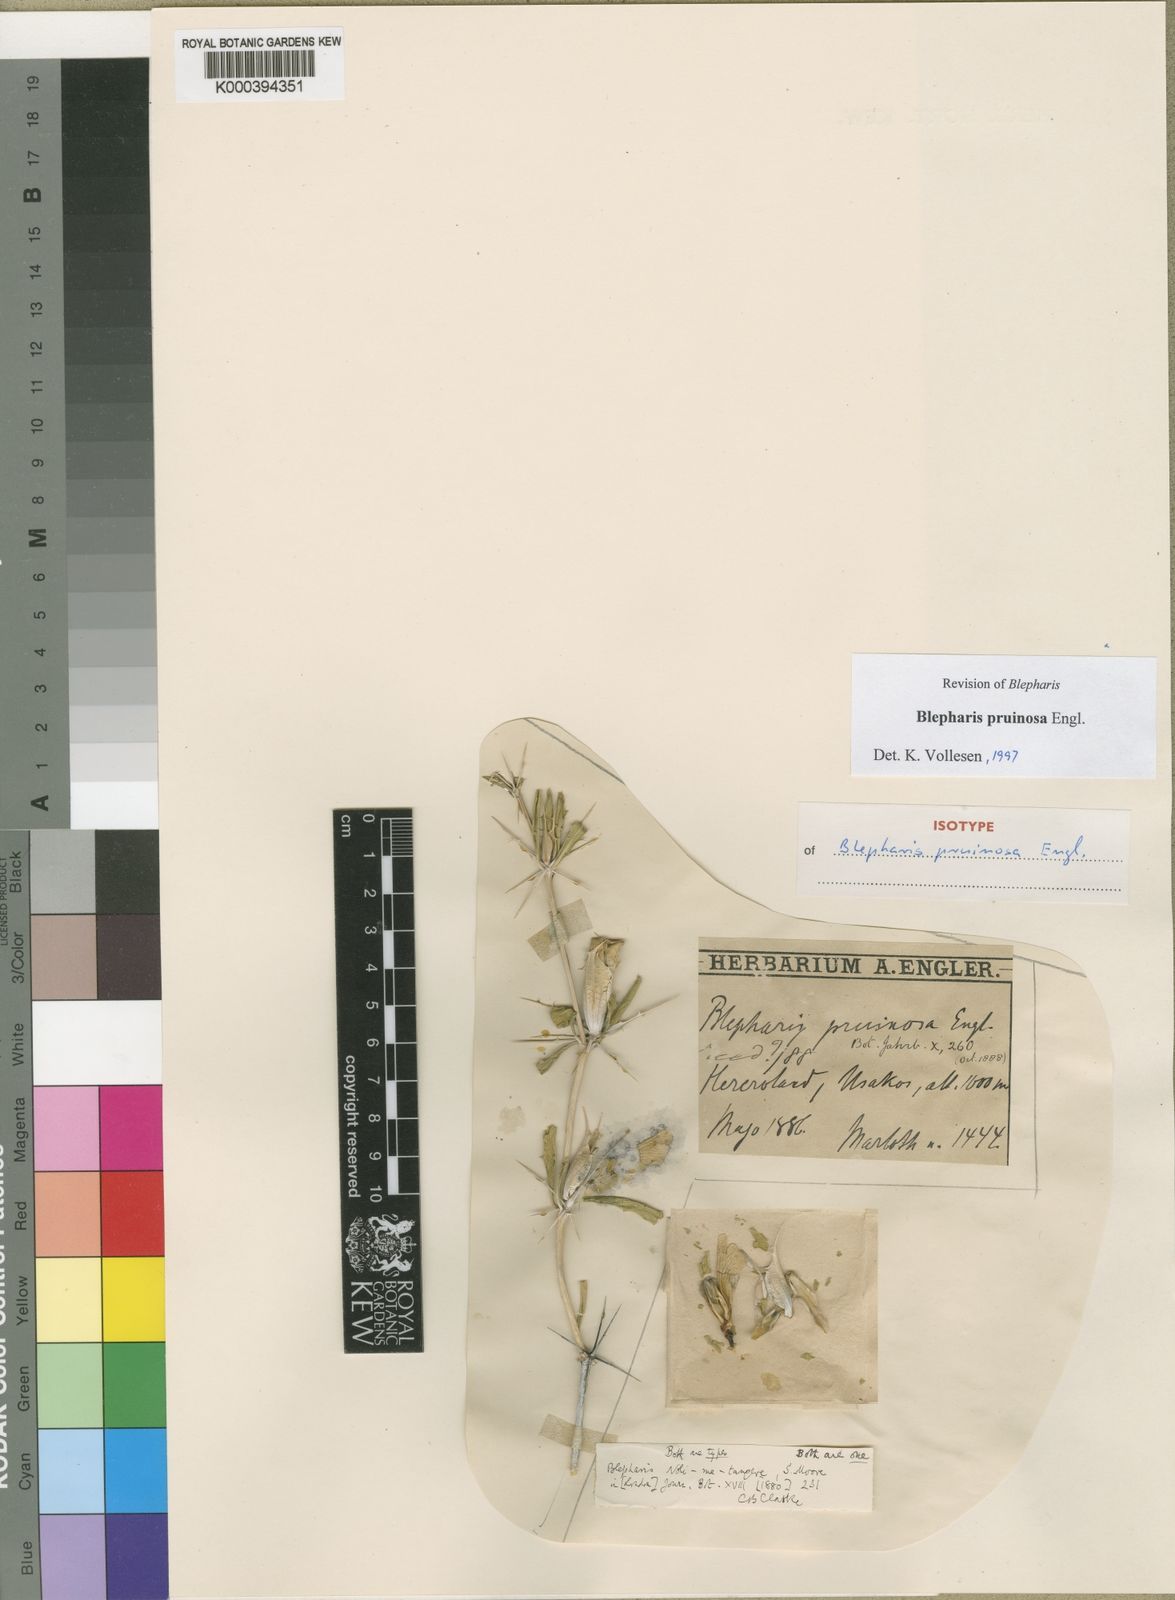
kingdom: Plantae
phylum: Tracheophyta
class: Magnoliopsida
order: Lamiales
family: Acanthaceae
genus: Blepharis
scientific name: Blepharis pruinosa
